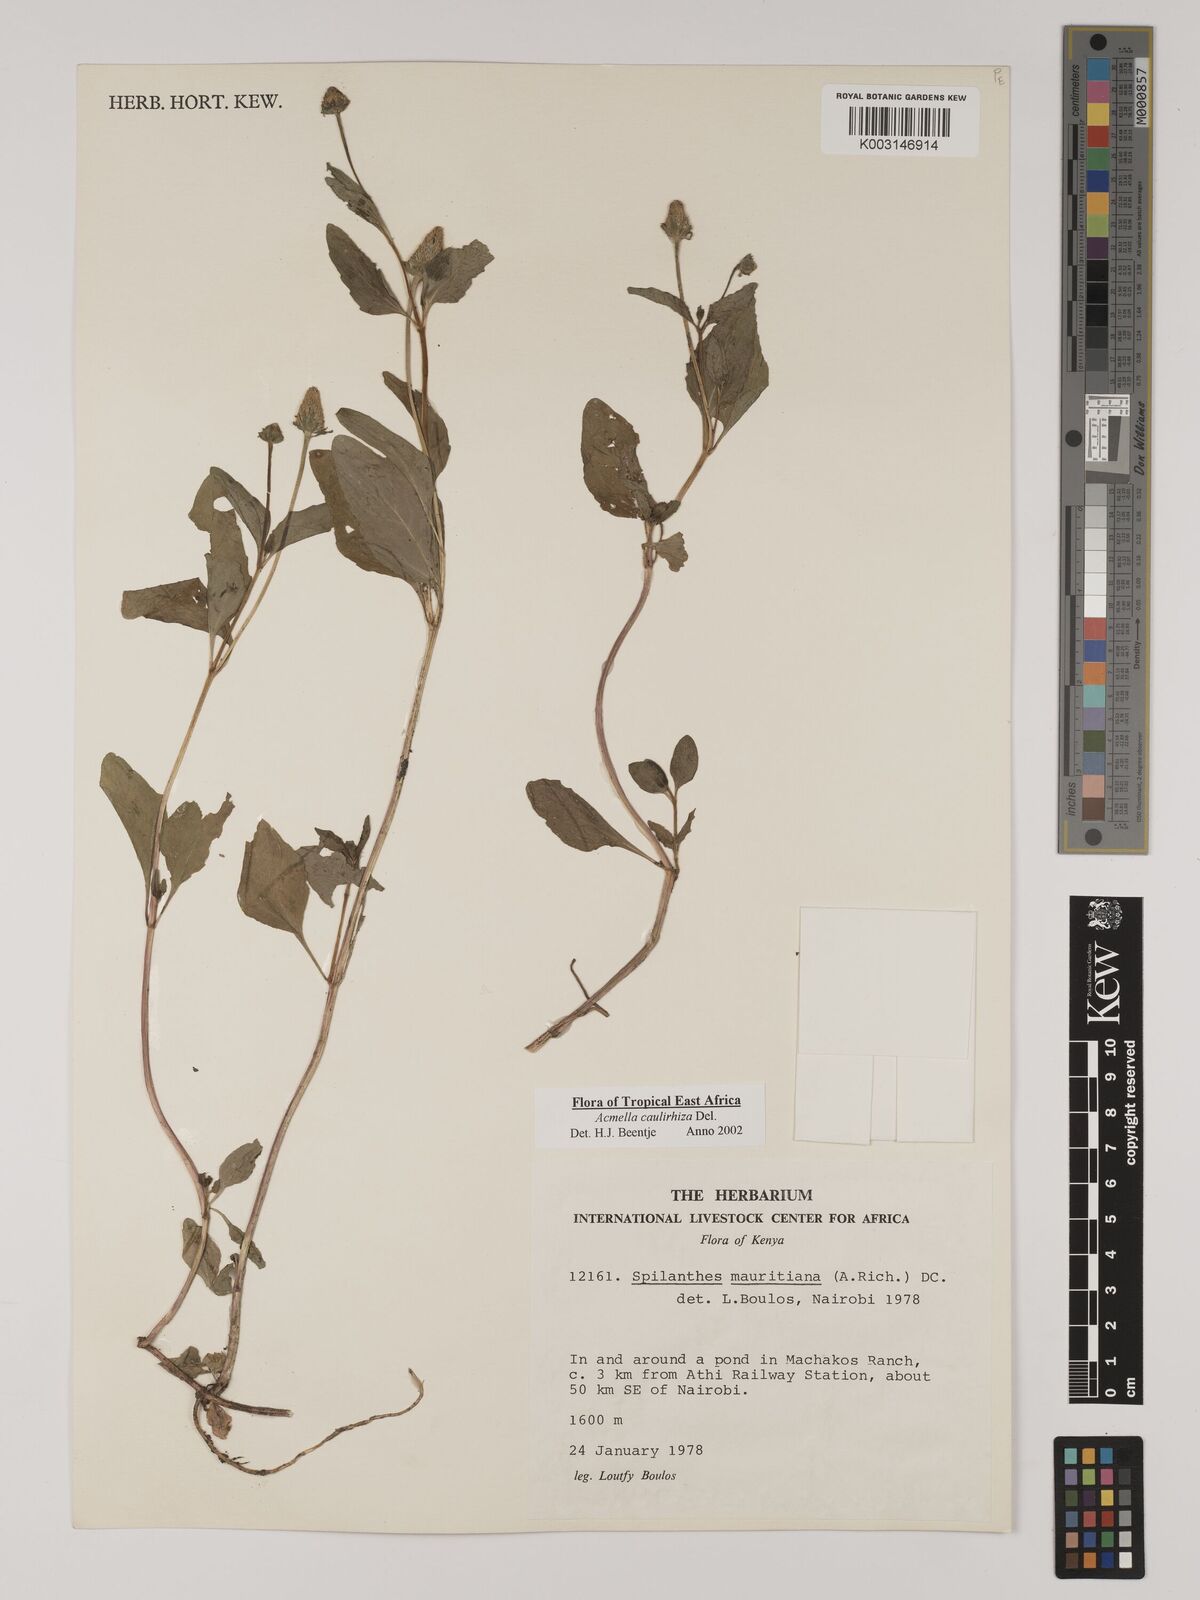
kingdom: Plantae
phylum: Tracheophyta
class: Magnoliopsida
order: Asterales
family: Asteraceae
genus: Acmella
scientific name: Acmella caulirhiza
